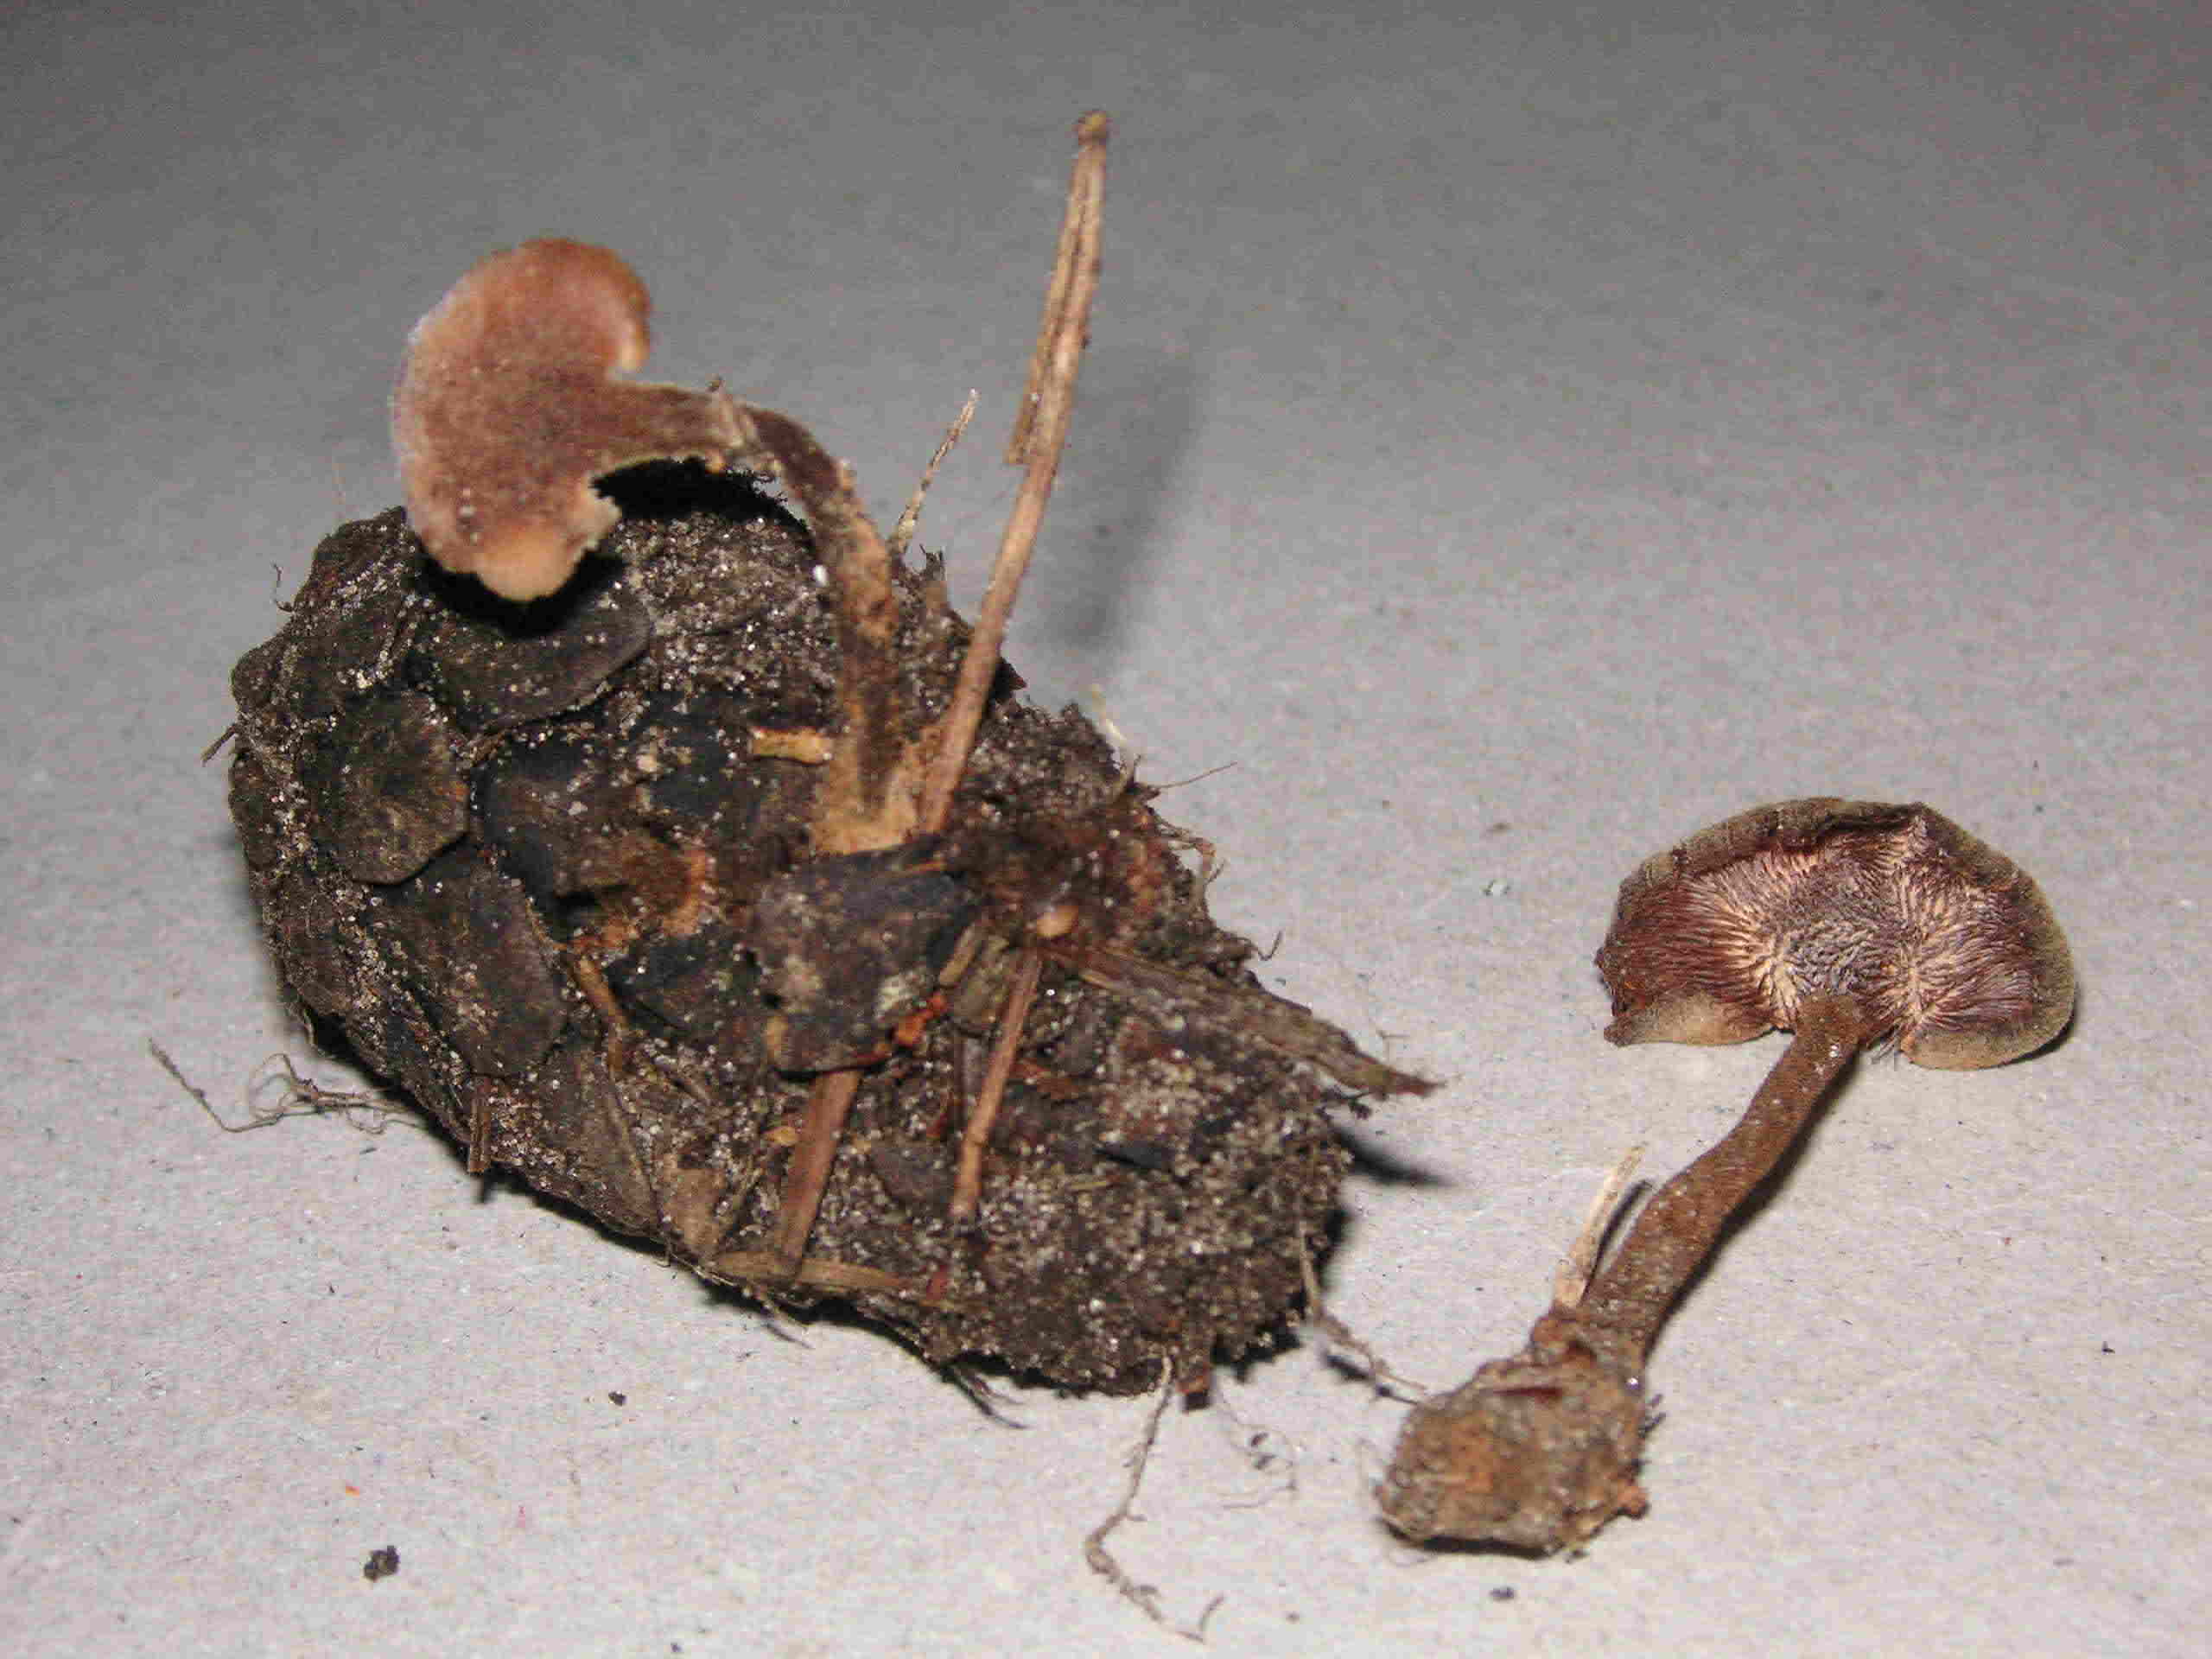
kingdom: Fungi
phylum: Basidiomycota
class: Agaricomycetes
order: Russulales
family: Auriscalpiaceae
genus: Auriscalpium
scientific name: Auriscalpium vulgare
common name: koglepigsvamp
